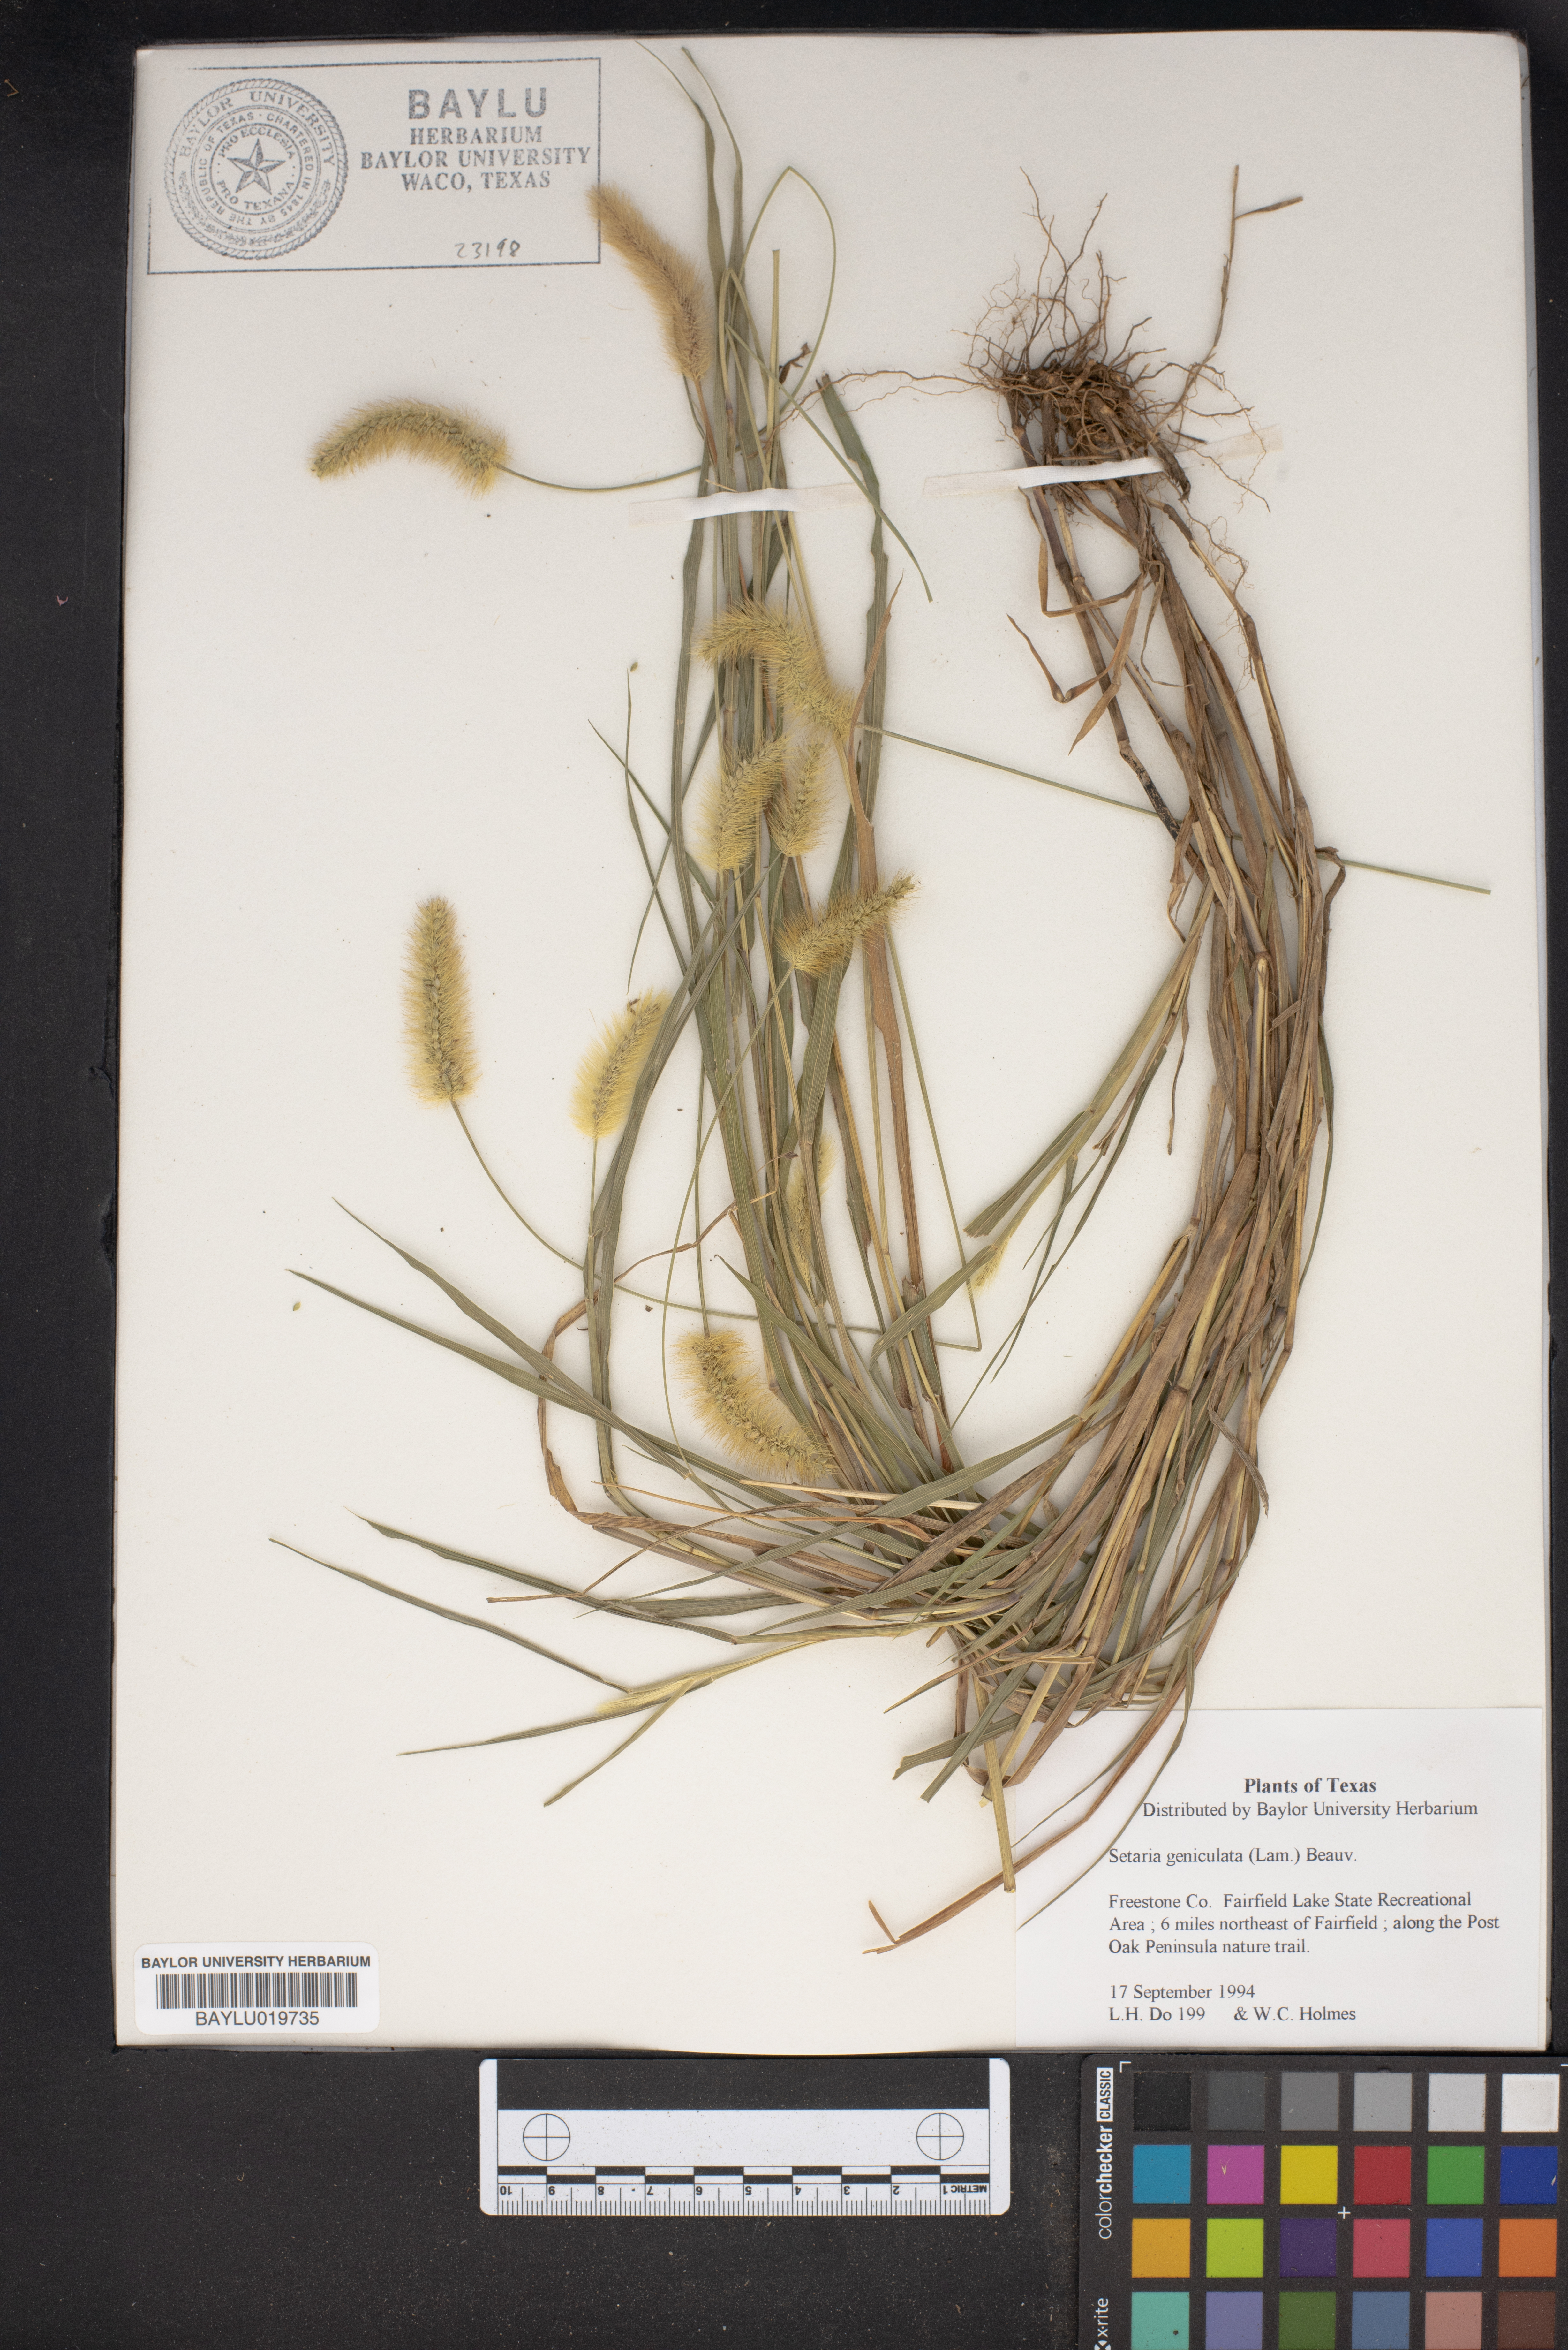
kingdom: Plantae
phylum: Tracheophyta
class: Liliopsida
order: Poales
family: Poaceae
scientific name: Poaceae
